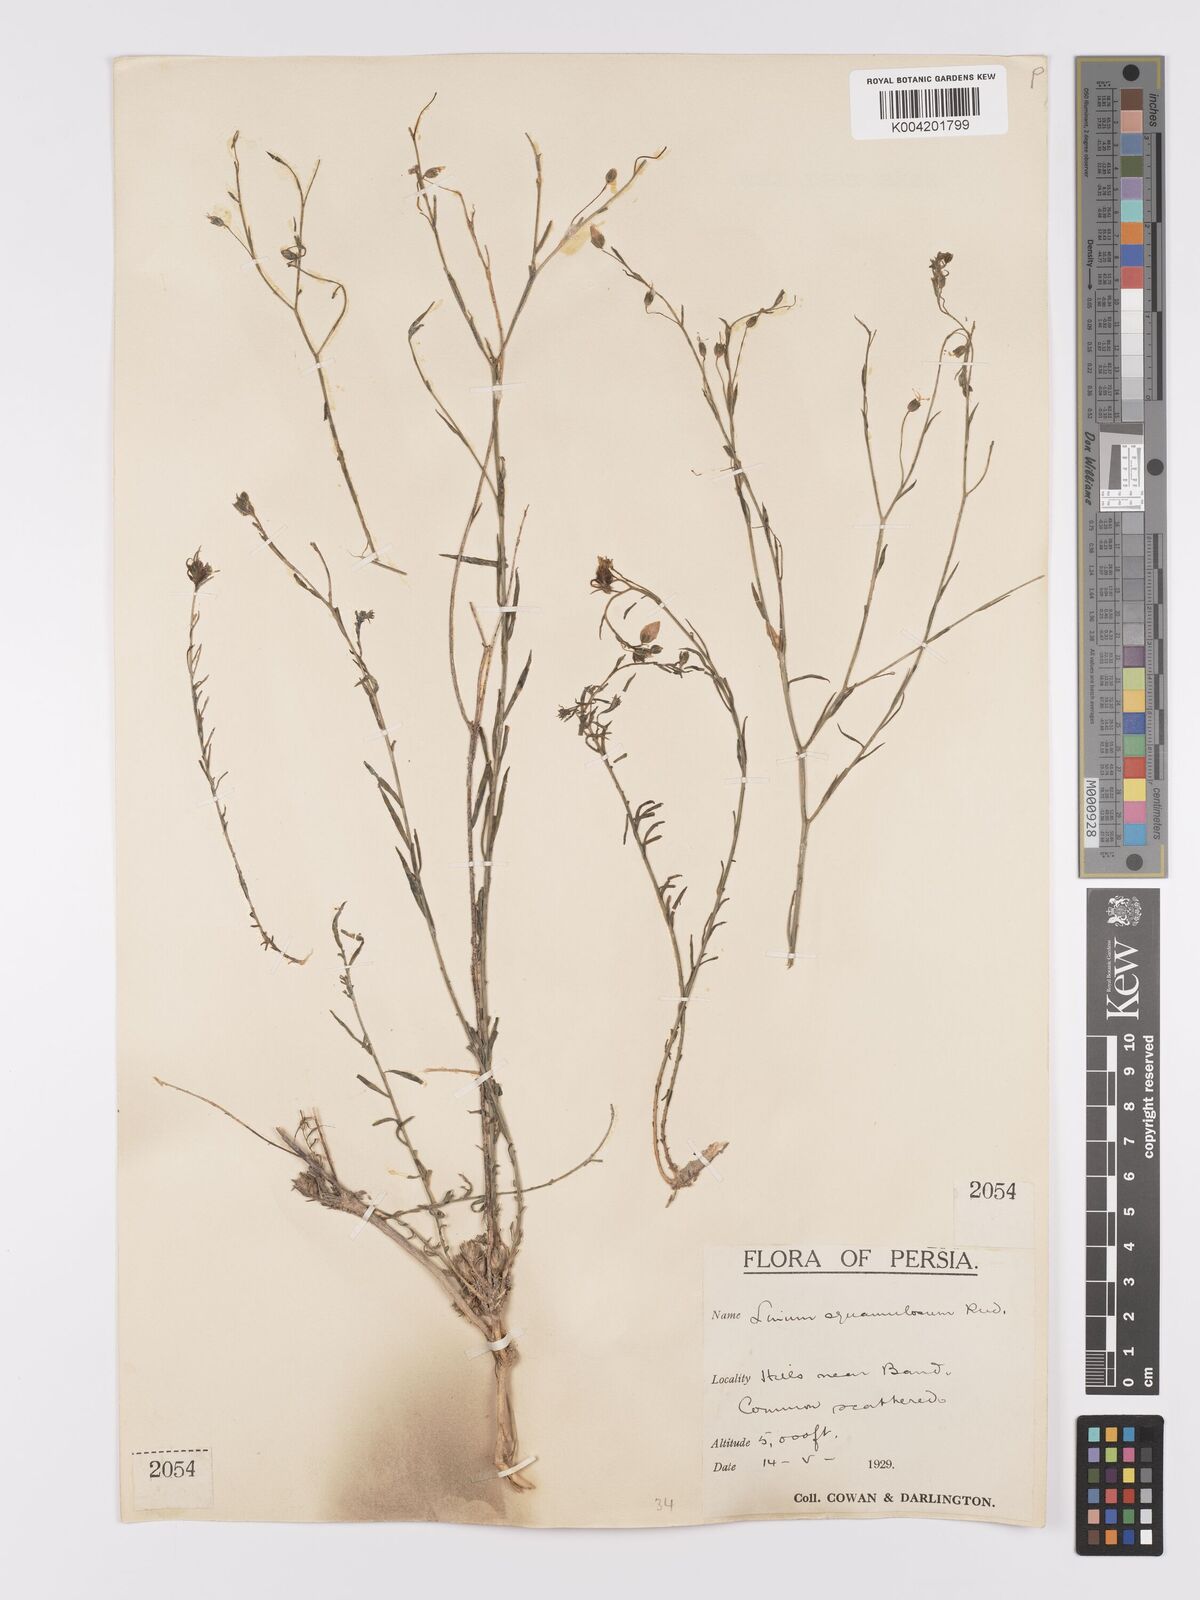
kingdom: Plantae
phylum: Tracheophyta
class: Magnoliopsida
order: Malpighiales
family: Linaceae
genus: Linum
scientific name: Linum
